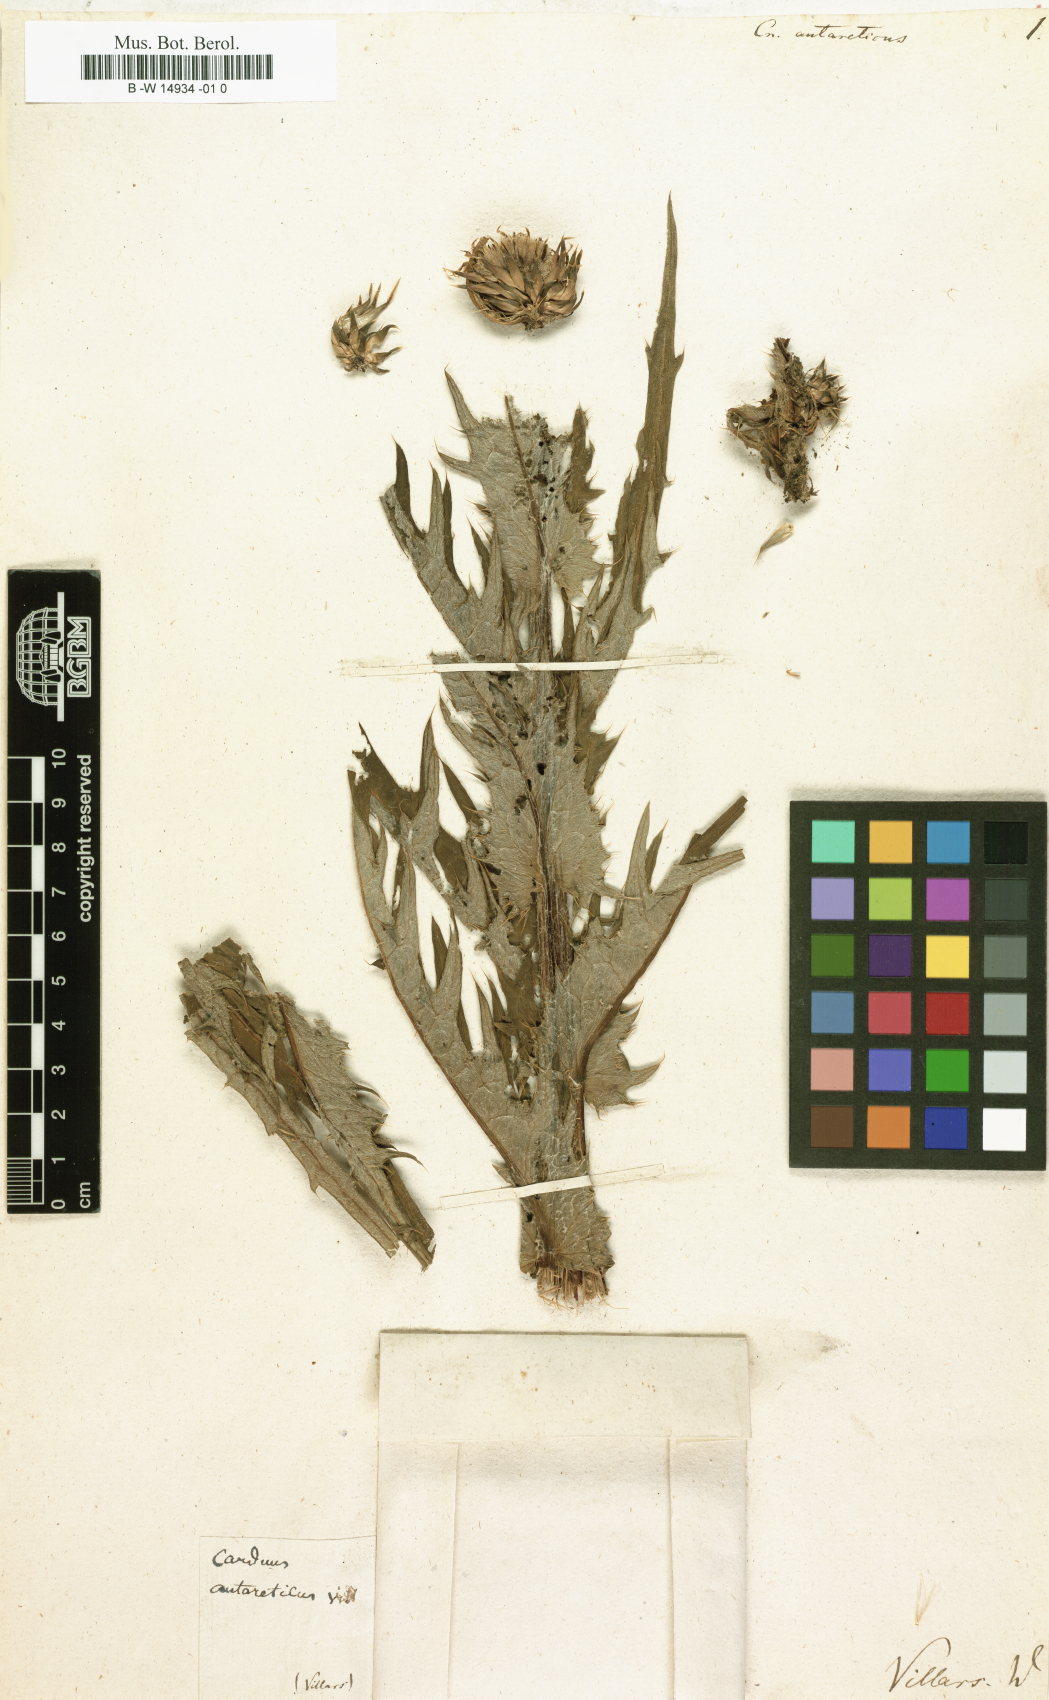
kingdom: Plantae
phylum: Tracheophyta
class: Magnoliopsida
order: Asterales
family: Asteraceae
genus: Cirsium
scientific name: Cirsium
